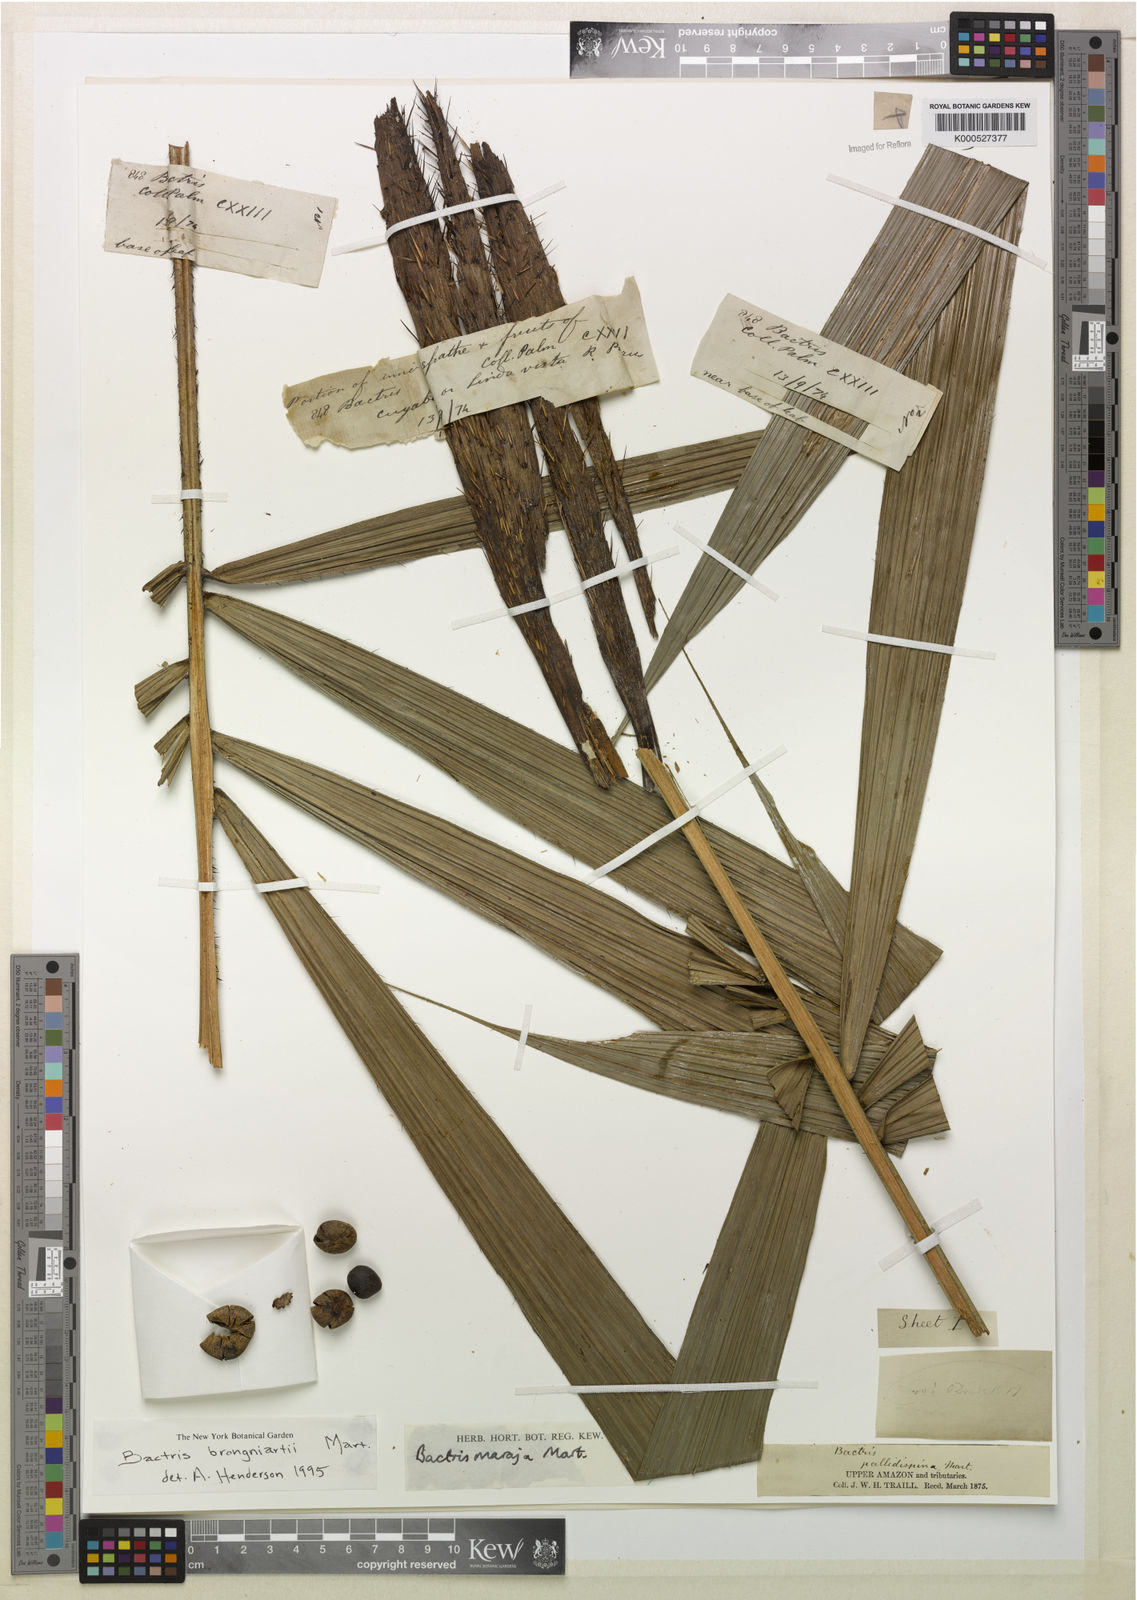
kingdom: Plantae
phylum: Tracheophyta
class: Liliopsida
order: Arecales
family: Arecaceae
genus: Bactris
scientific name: Bactris brongniartii
